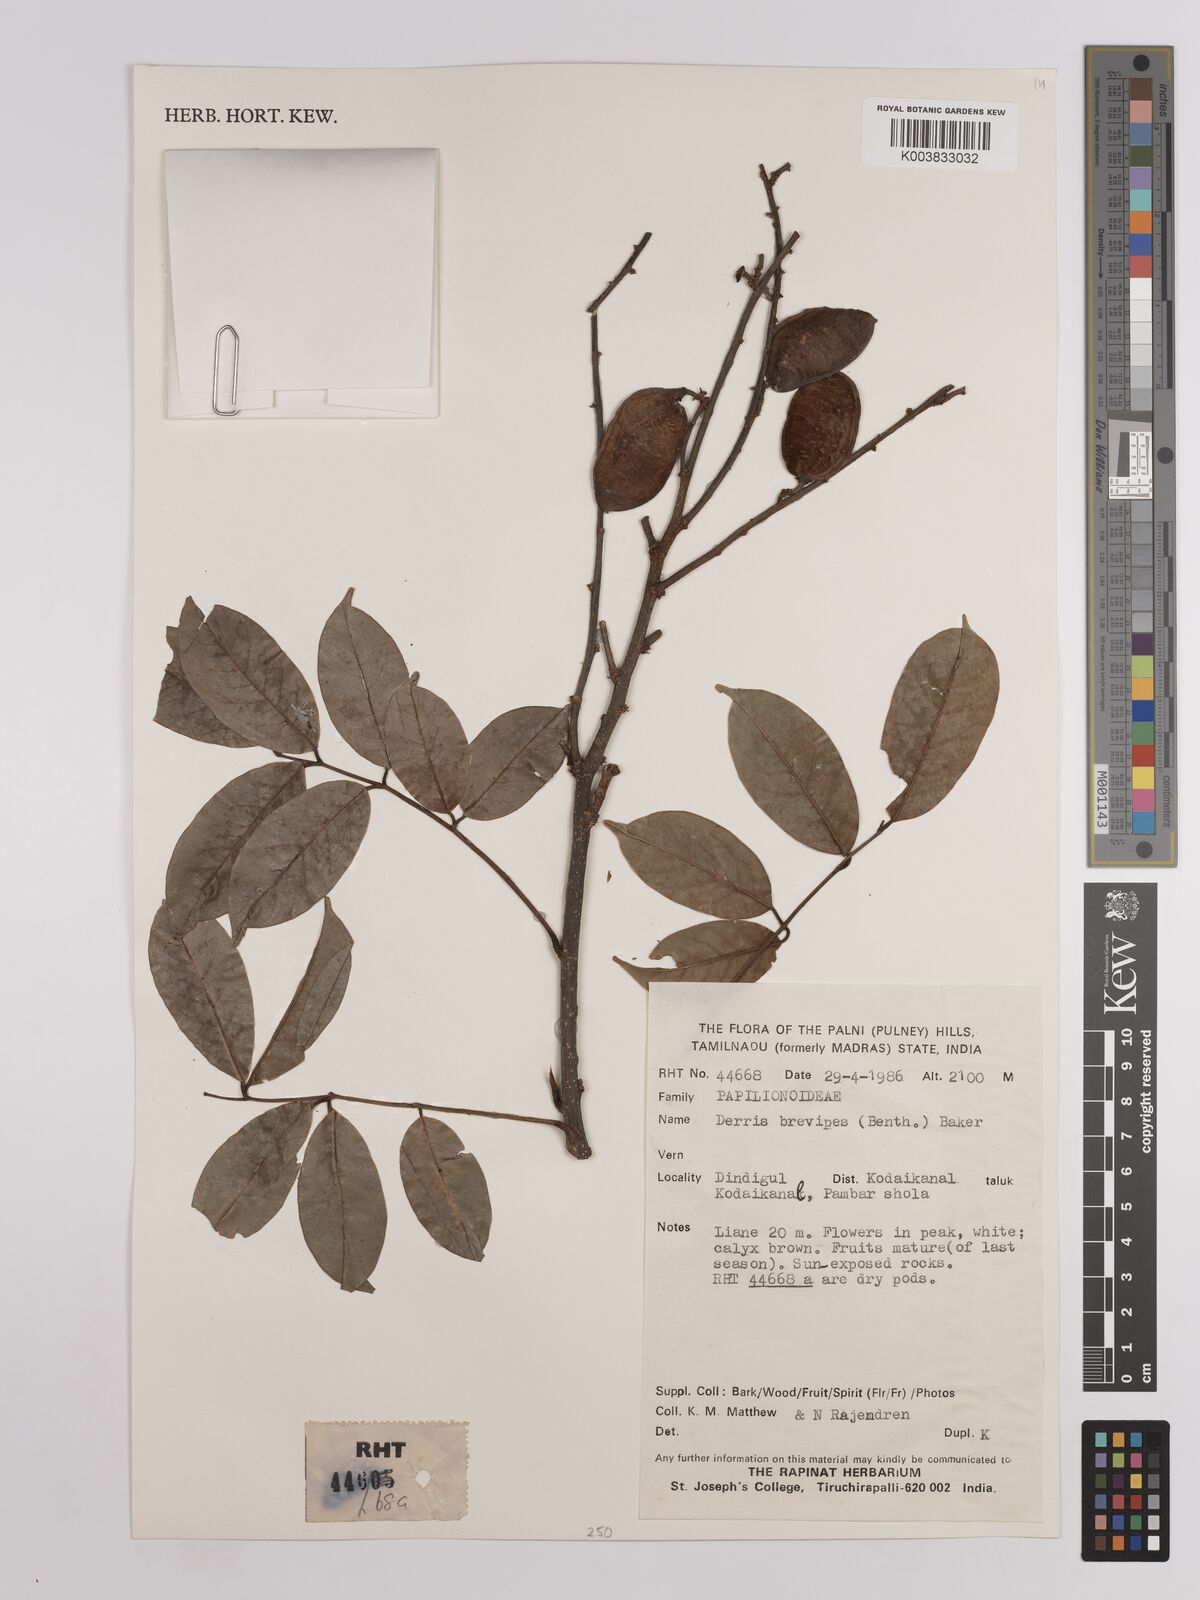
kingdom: Plantae
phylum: Tracheophyta
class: Magnoliopsida
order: Fabales
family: Fabaceae
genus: Derris
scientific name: Derris brevipes
